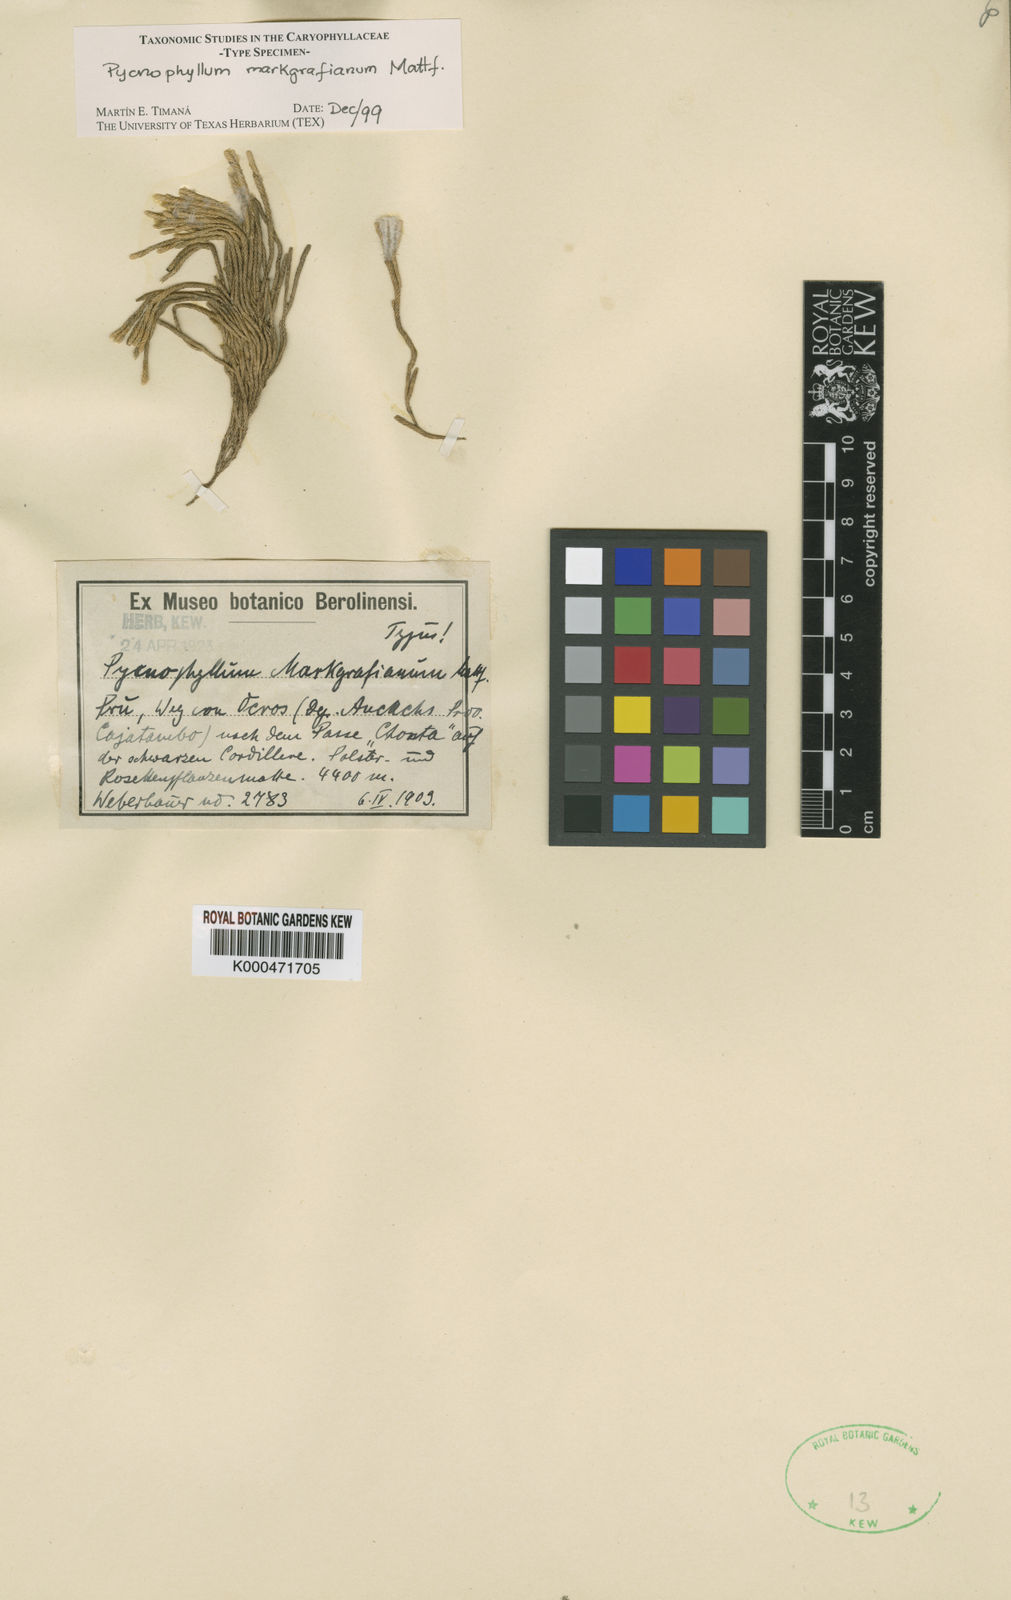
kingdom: Plantae
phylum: Tracheophyta
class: Magnoliopsida
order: Caryophyllales
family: Caryophyllaceae
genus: Pycnophyllum
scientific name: Pycnophyllum markgrafianum
